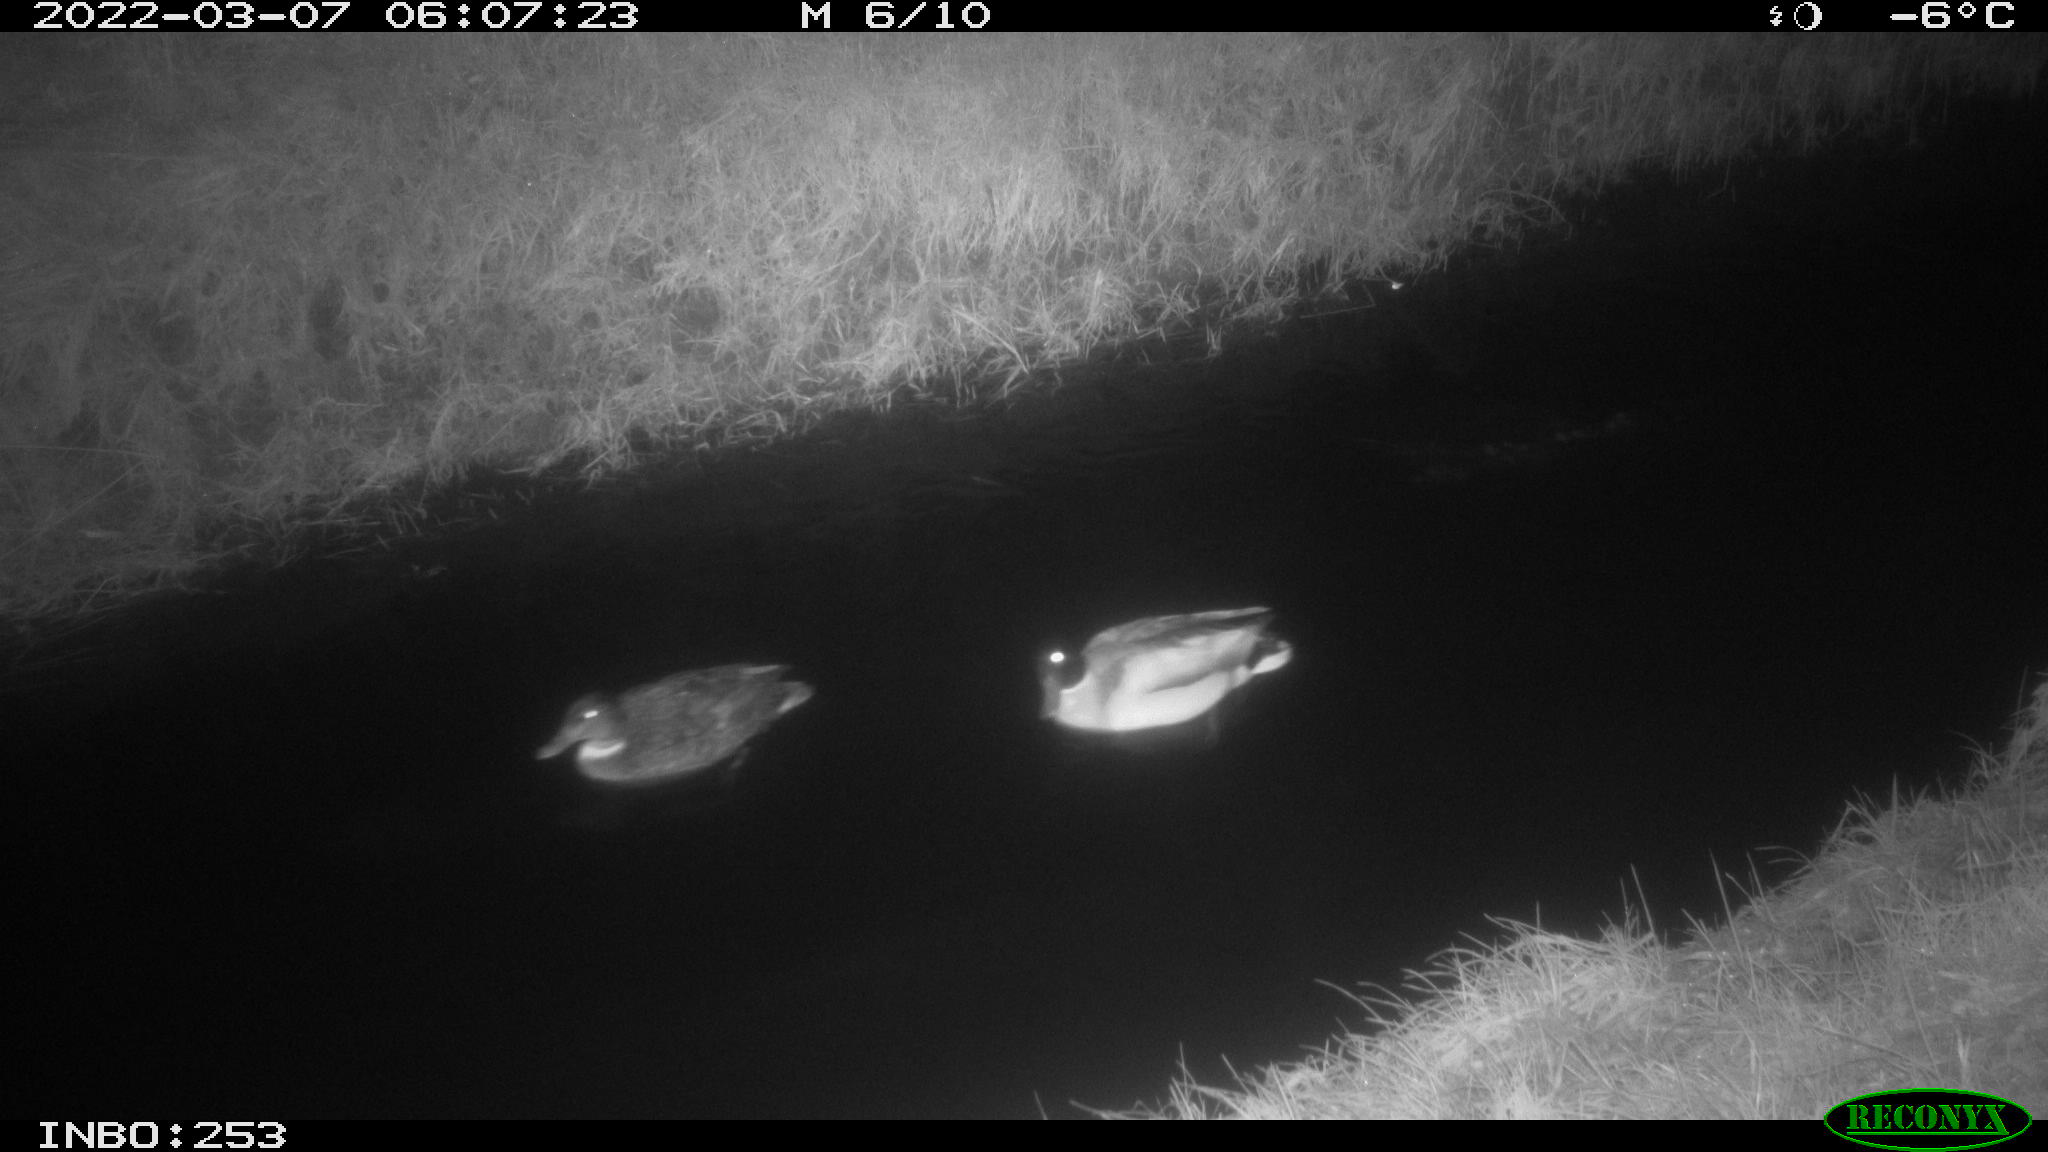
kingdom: Animalia
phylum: Chordata
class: Aves
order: Anseriformes
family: Anatidae
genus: Anas
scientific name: Anas platyrhynchos
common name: Mallard
